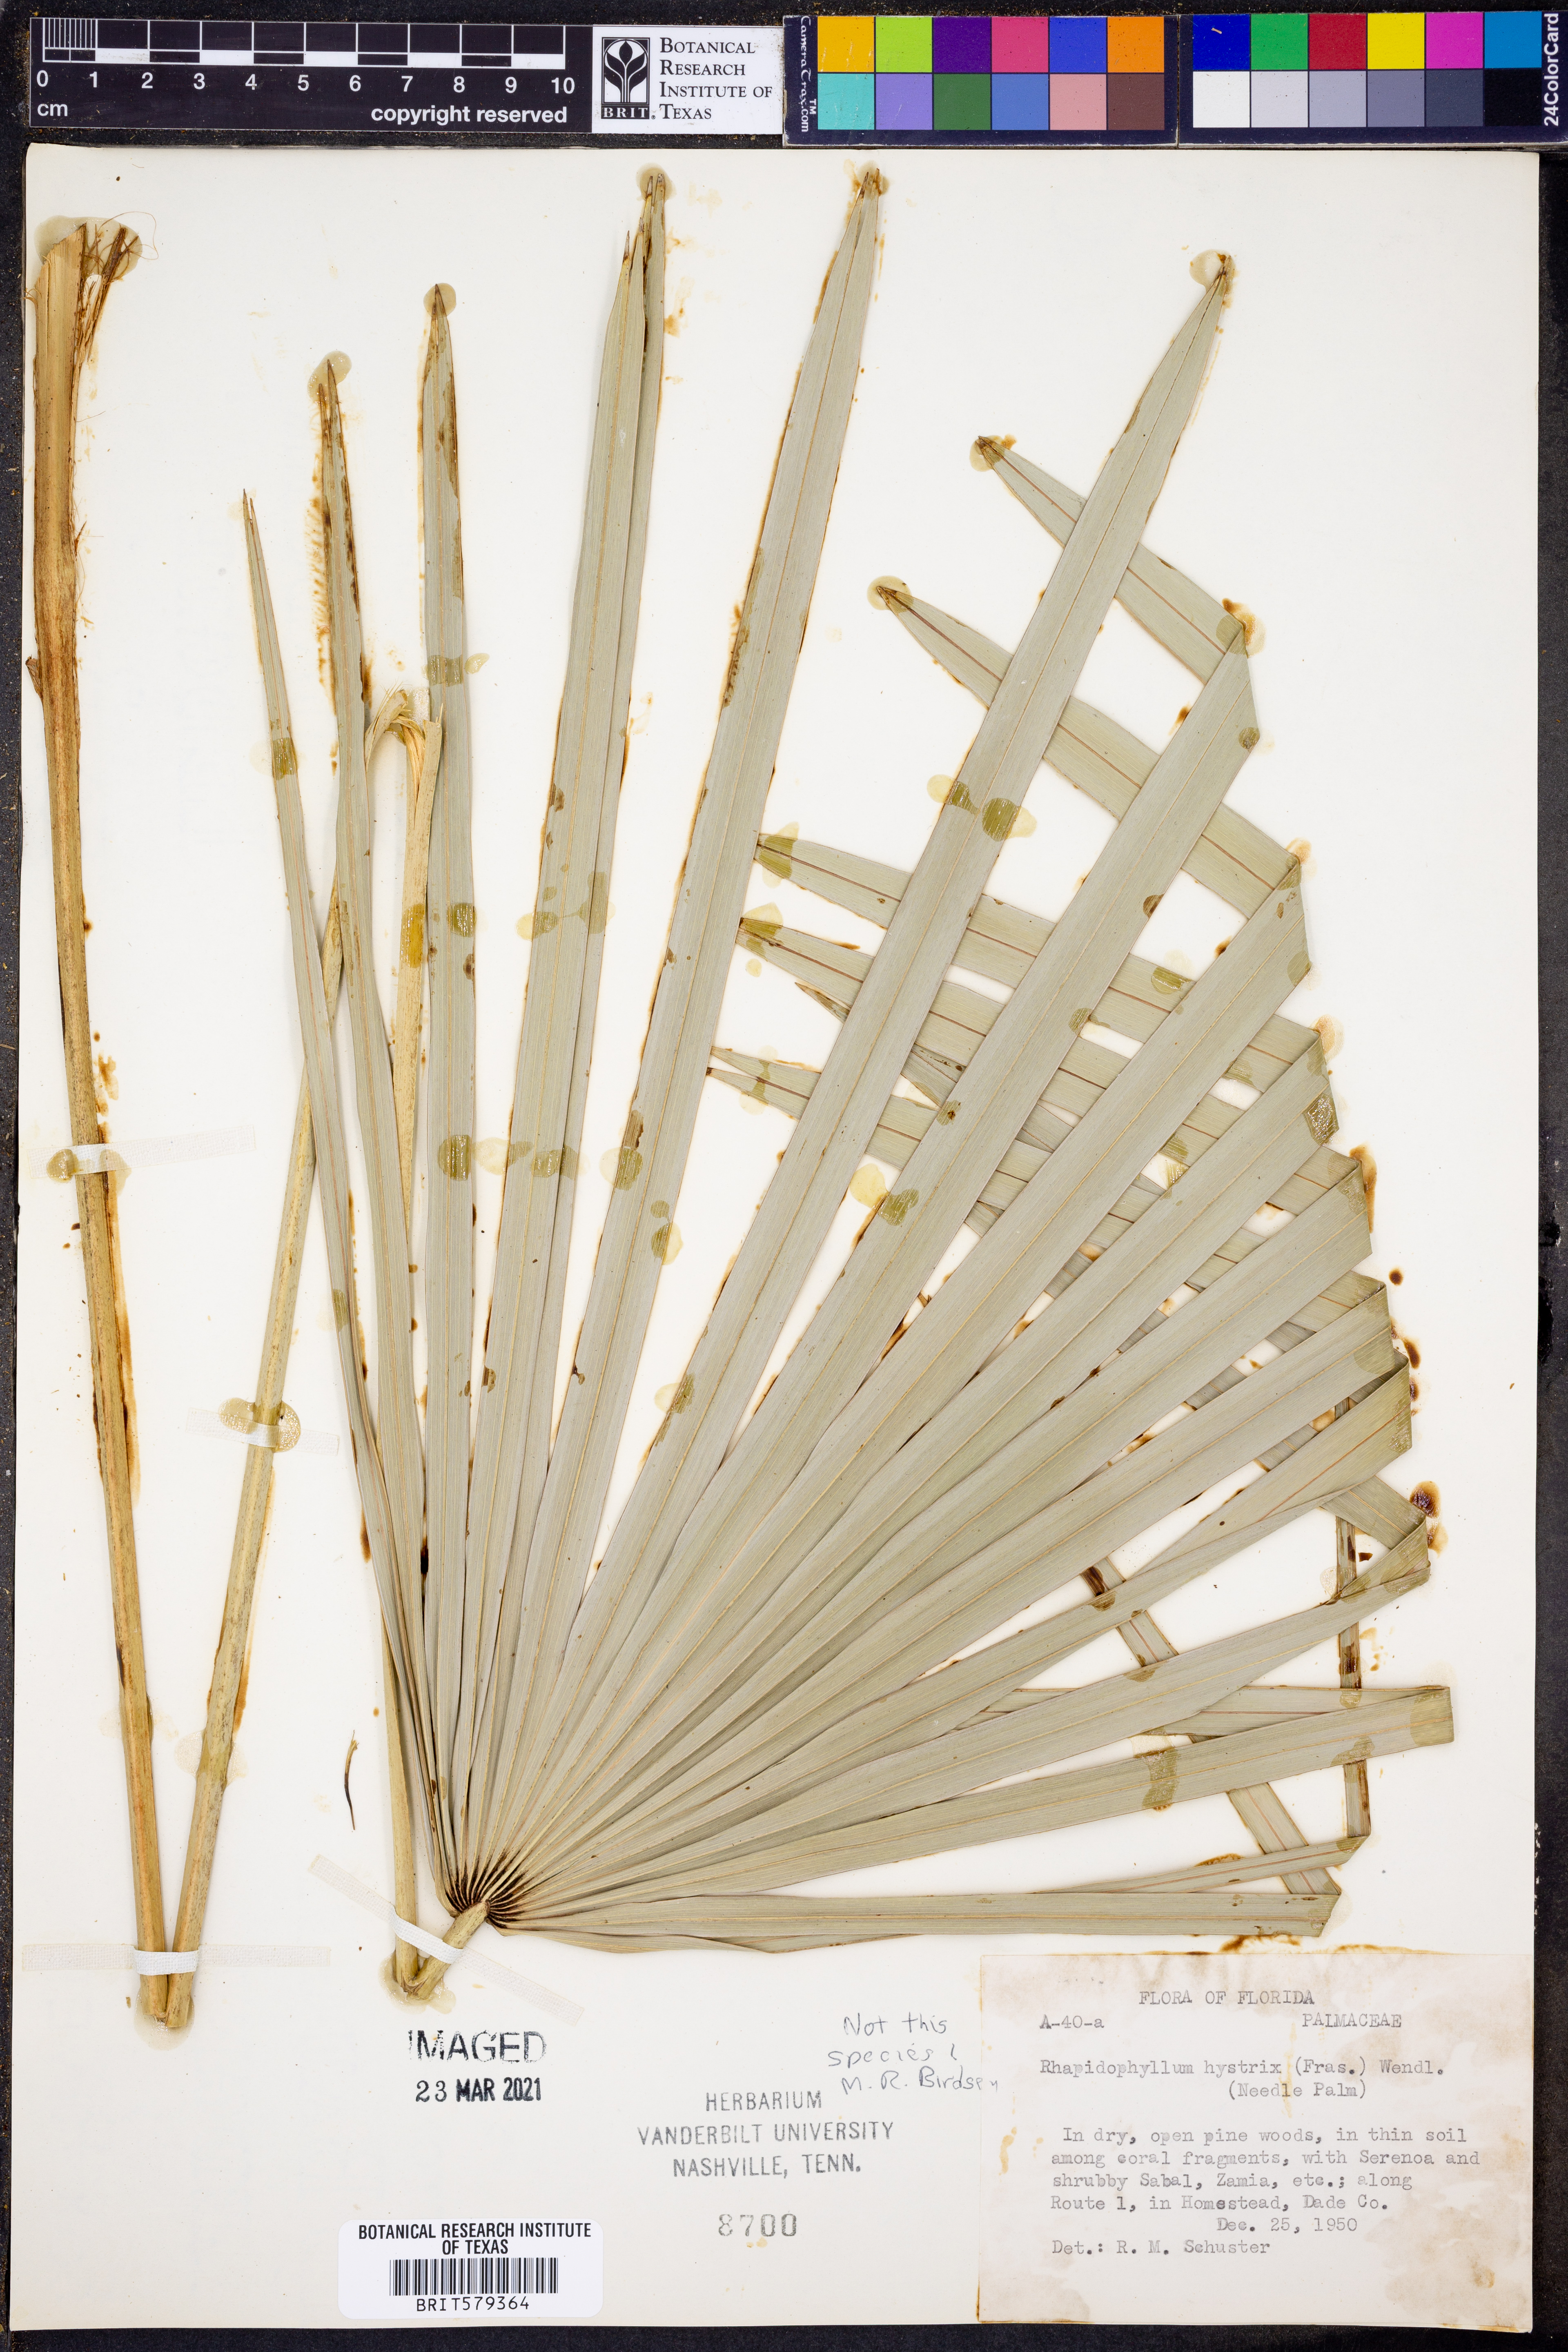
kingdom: Plantae
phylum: Tracheophyta
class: Liliopsida
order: Arecales
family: Arecaceae
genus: Rhapidophyllum
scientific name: Rhapidophyllum
